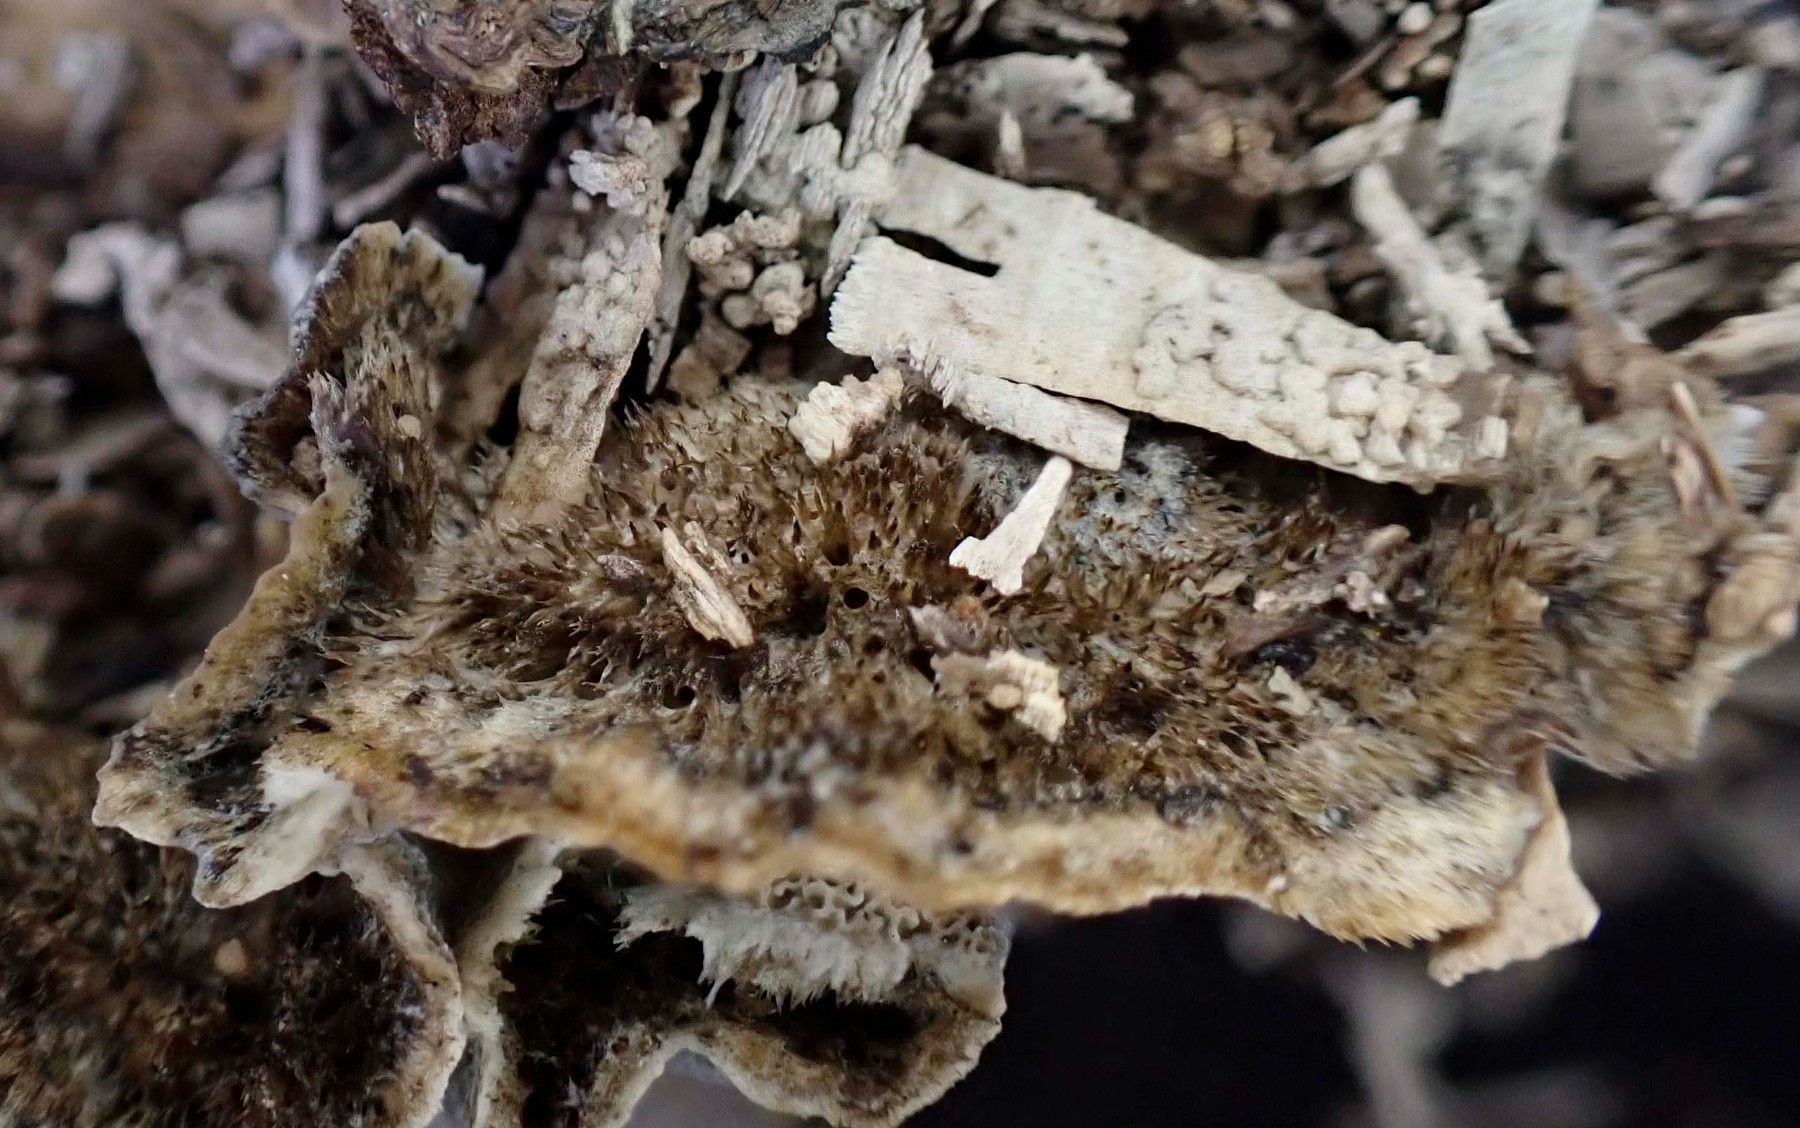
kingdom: Fungi
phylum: Basidiomycota
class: Agaricomycetes
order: Polyporales
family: Phanerochaetaceae
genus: Bjerkandera
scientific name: Bjerkandera adusta
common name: sveden sodporesvamp
